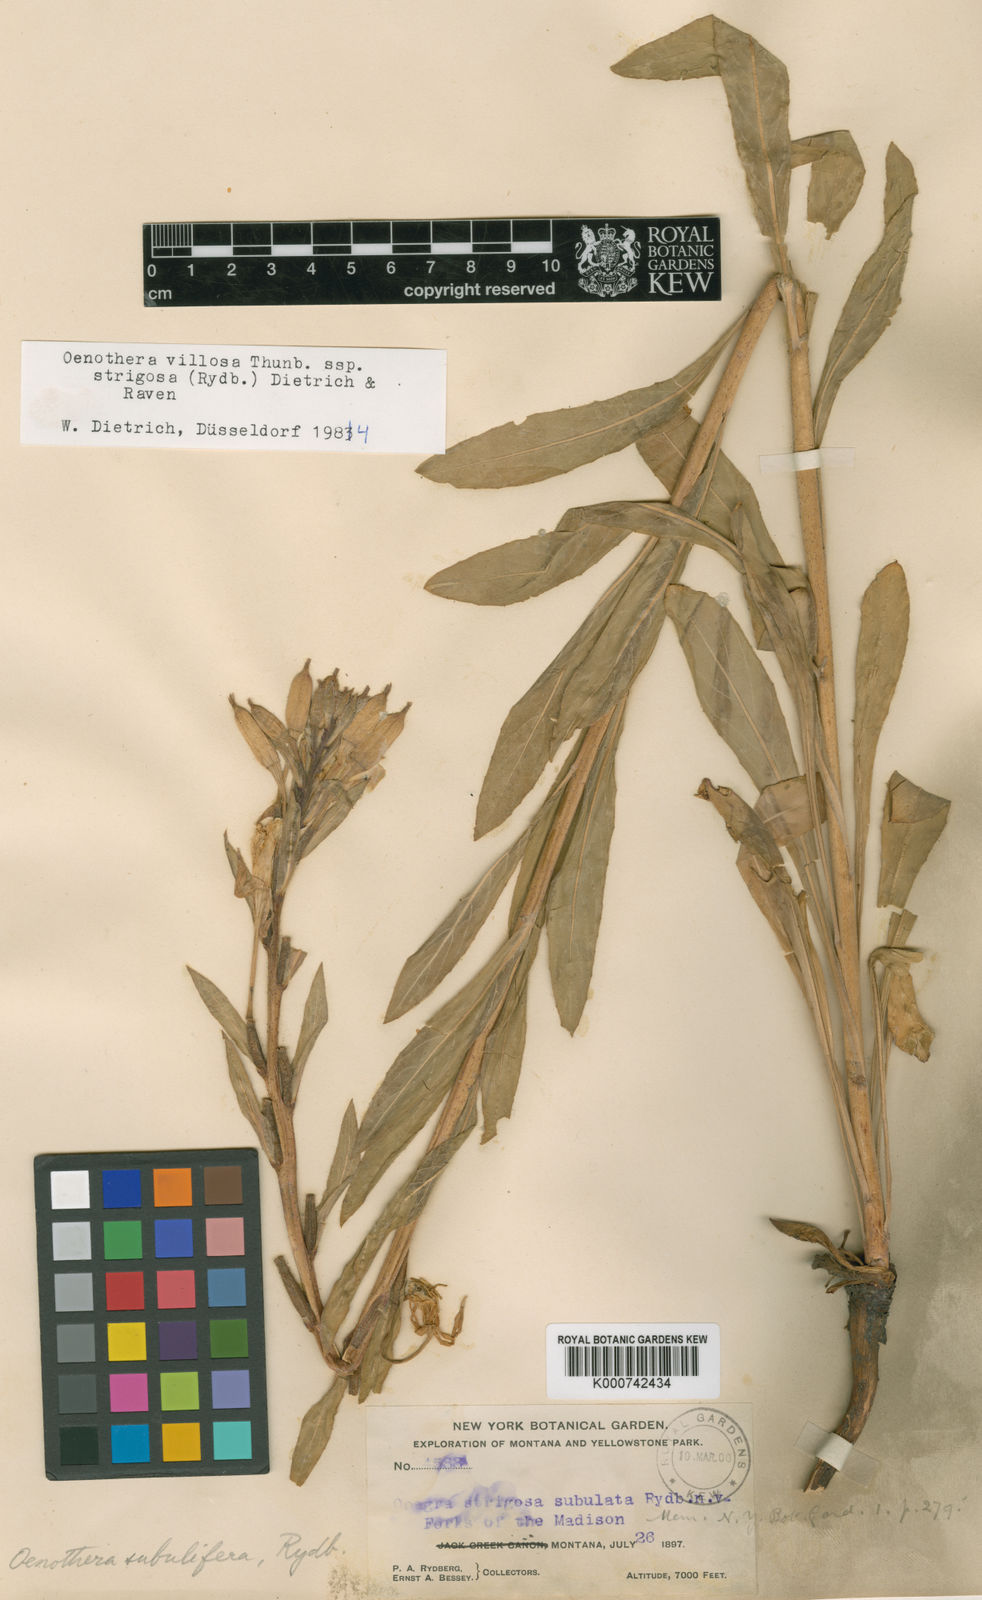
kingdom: Plantae
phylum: Tracheophyta
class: Magnoliopsida
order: Myrtales
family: Onagraceae
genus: Oenothera
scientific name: Oenothera villosa
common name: Hairy evening-primrose
